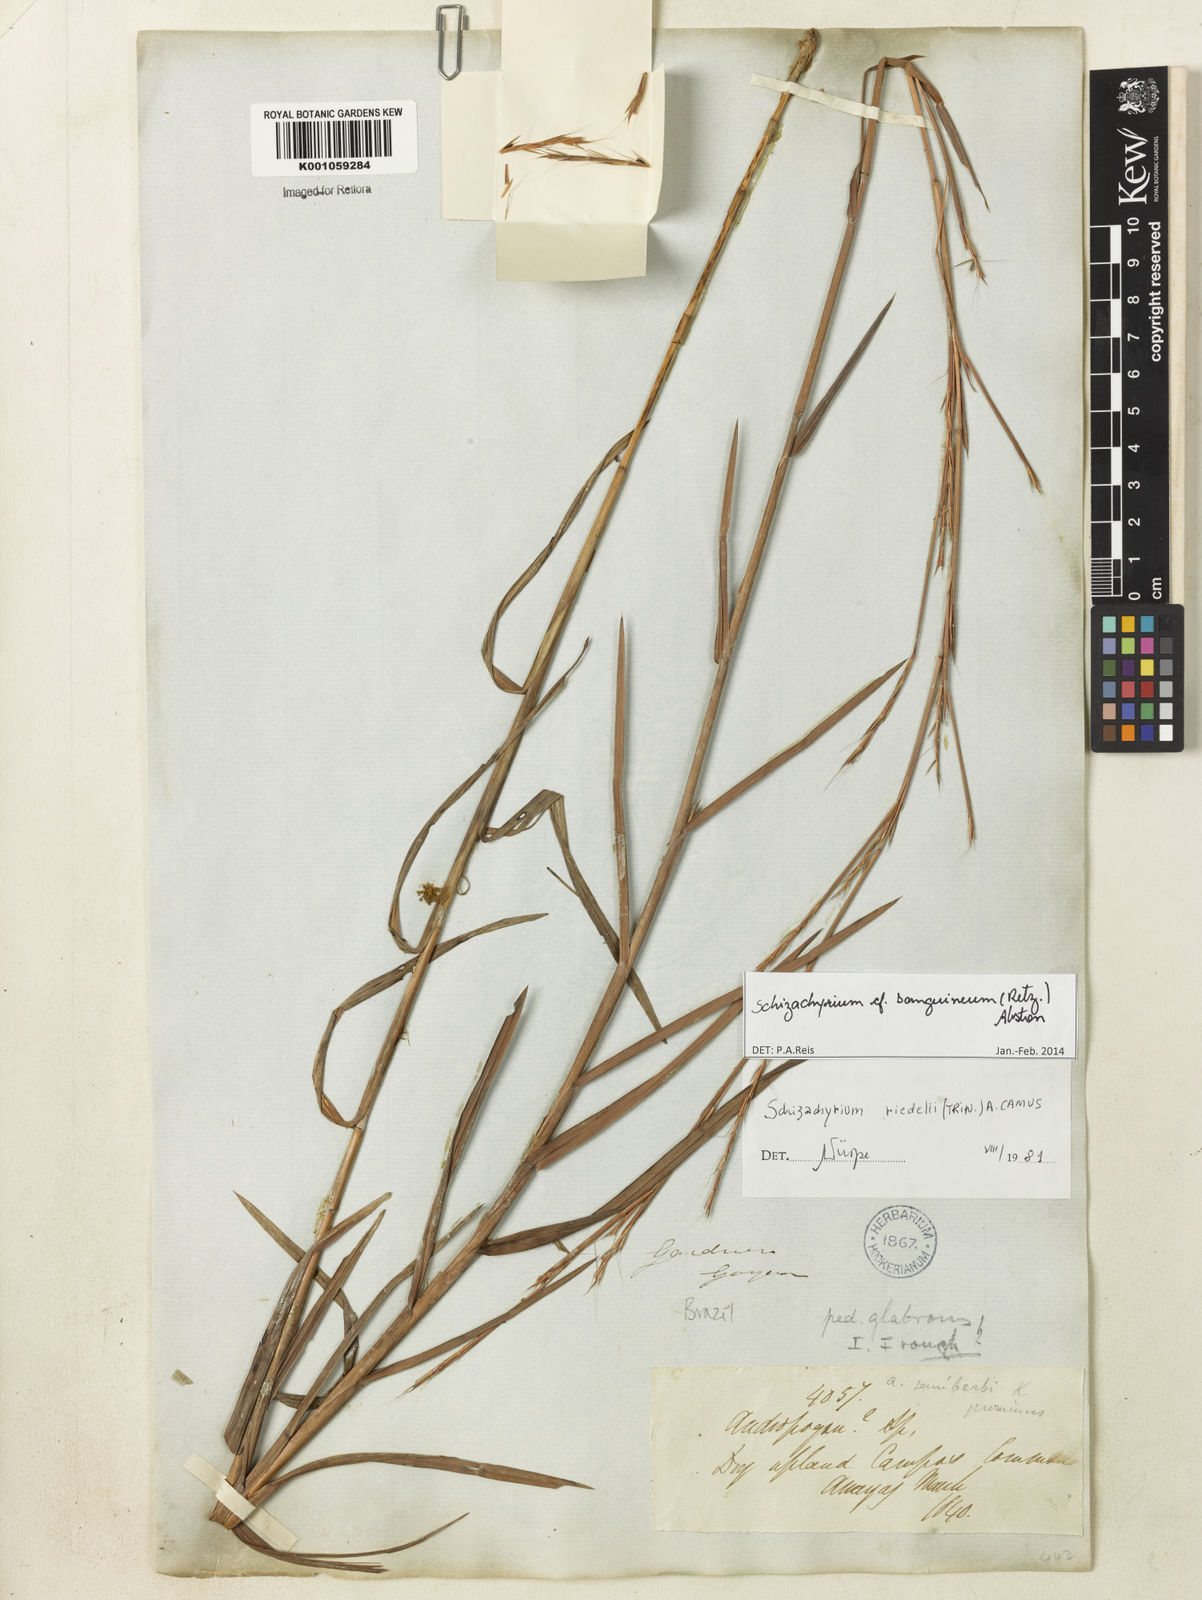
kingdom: Plantae
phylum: Tracheophyta
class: Liliopsida
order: Poales
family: Poaceae
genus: Schizachyrium
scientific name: Schizachyrium sanguineum
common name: Crimson bluestem
